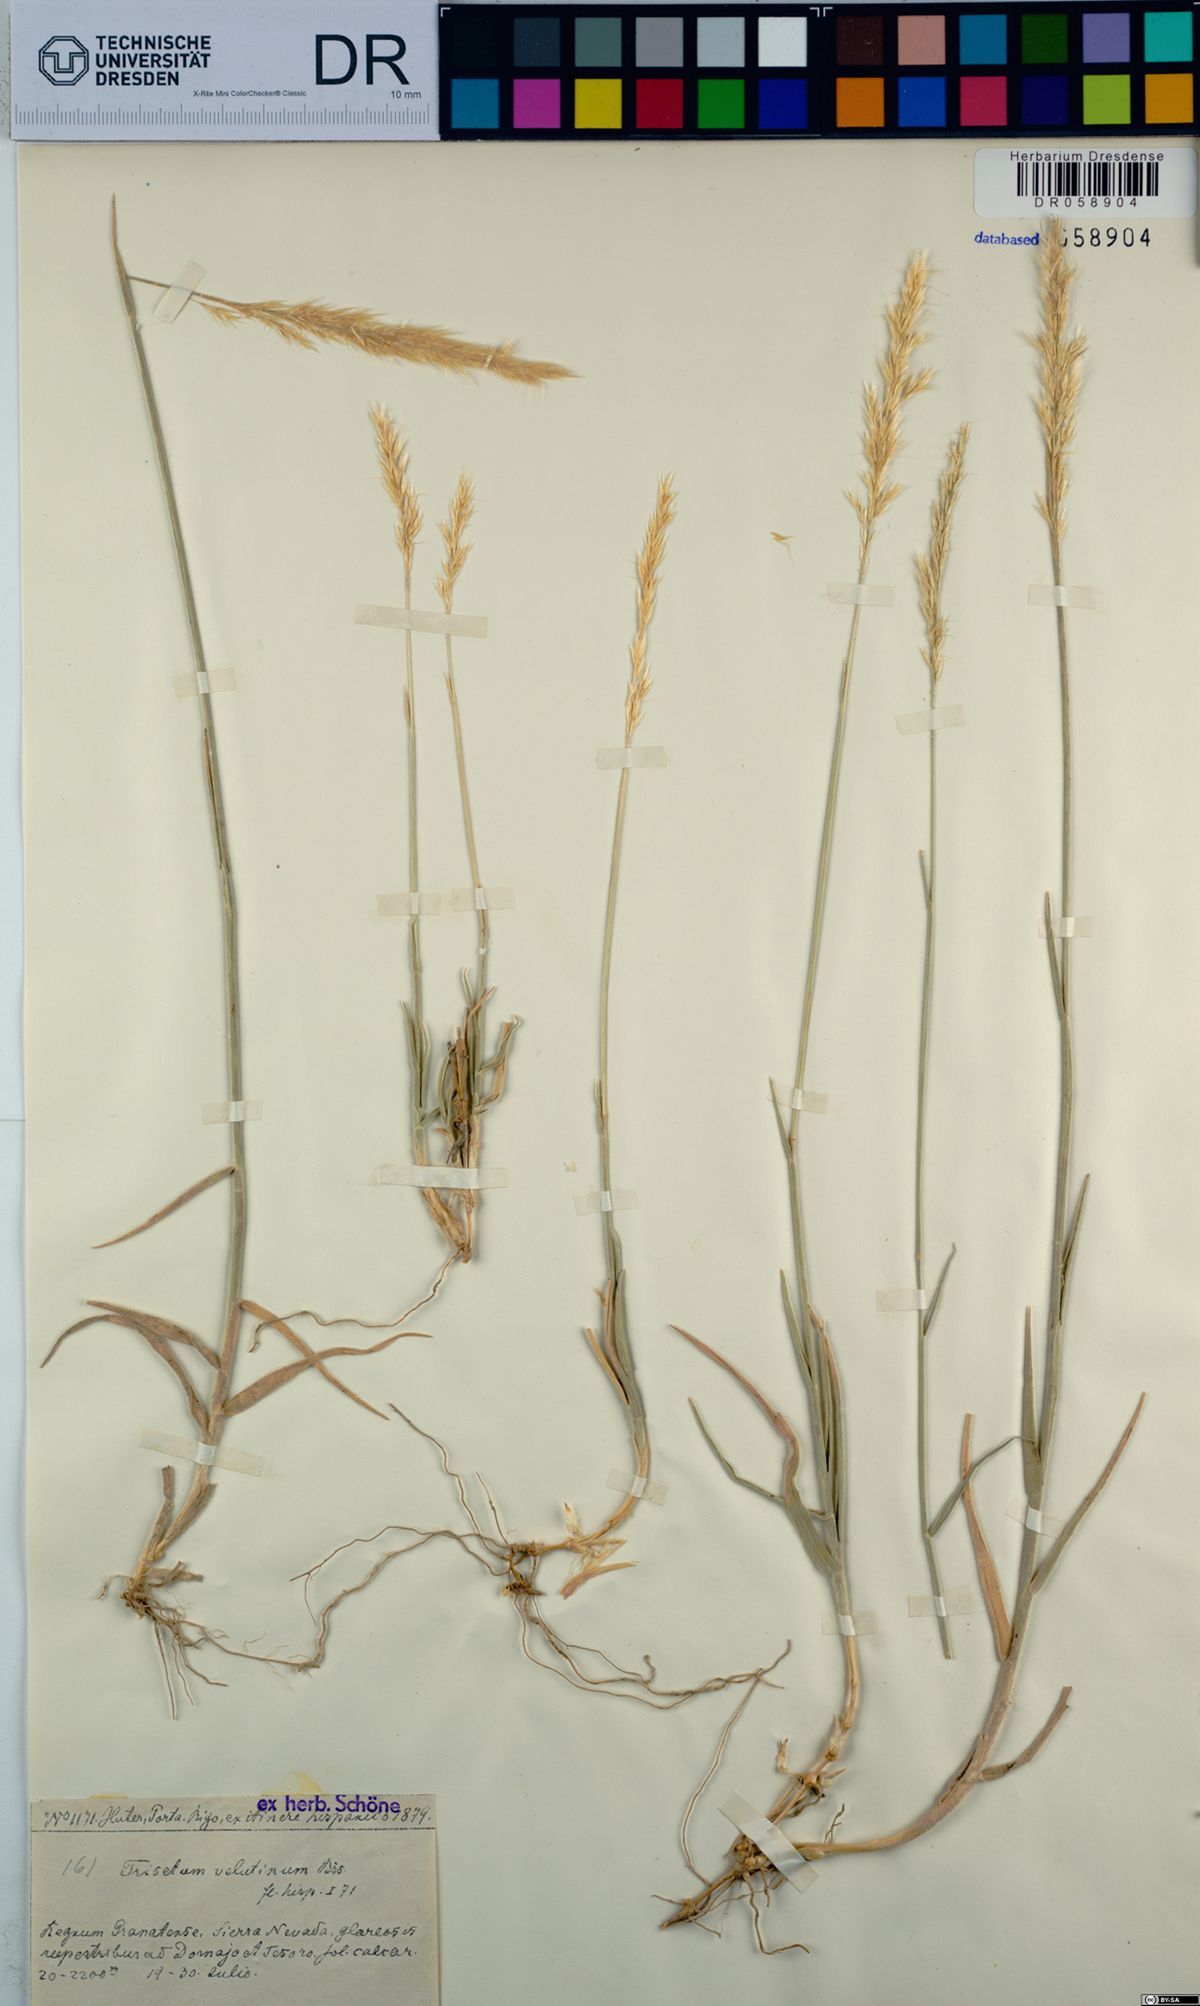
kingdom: Plantae
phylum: Tracheophyta
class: Liliopsida
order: Poales
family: Poaceae
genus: Trisetum
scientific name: Trisetum velutinum
